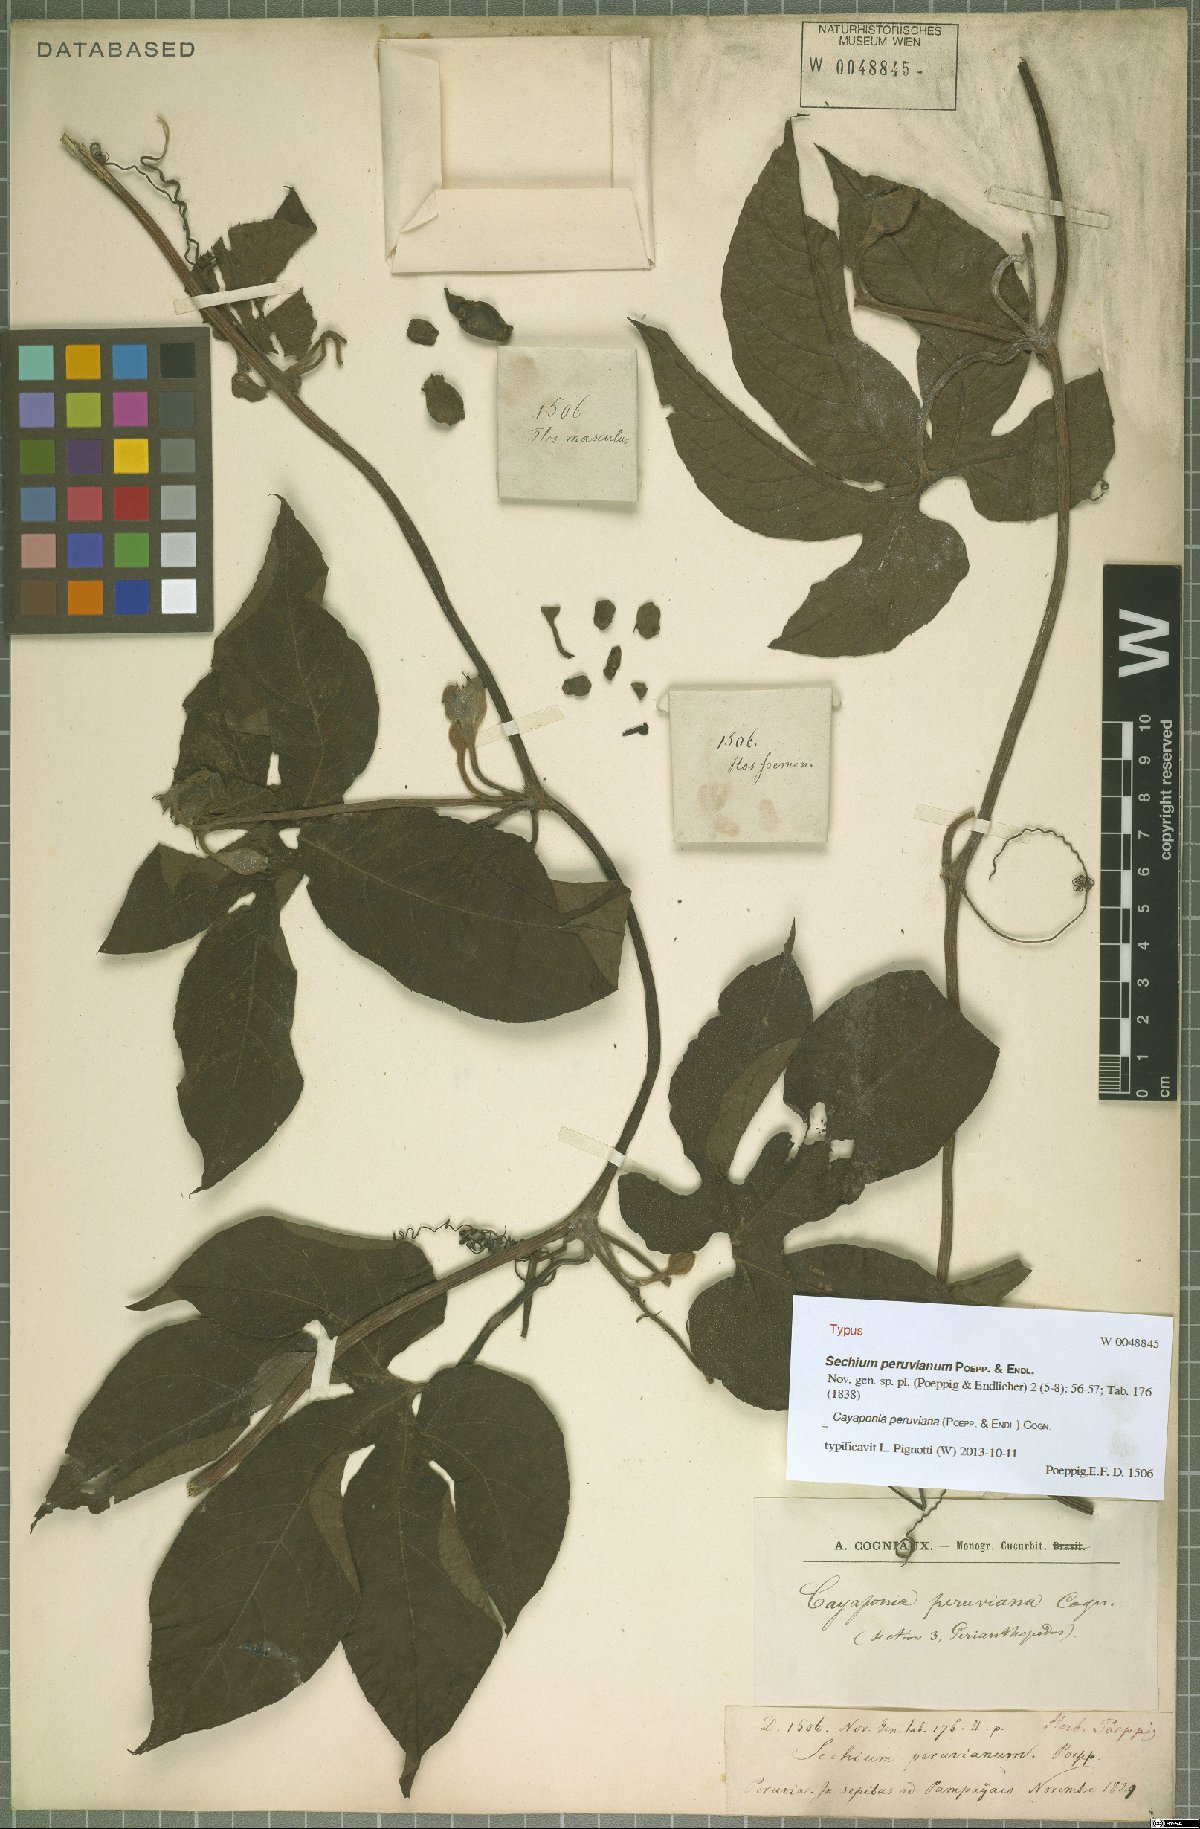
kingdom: Plantae
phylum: Tracheophyta
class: Magnoliopsida
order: Cucurbitales
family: Cucurbitaceae
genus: Cayaponia
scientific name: Cayaponia peruviana
